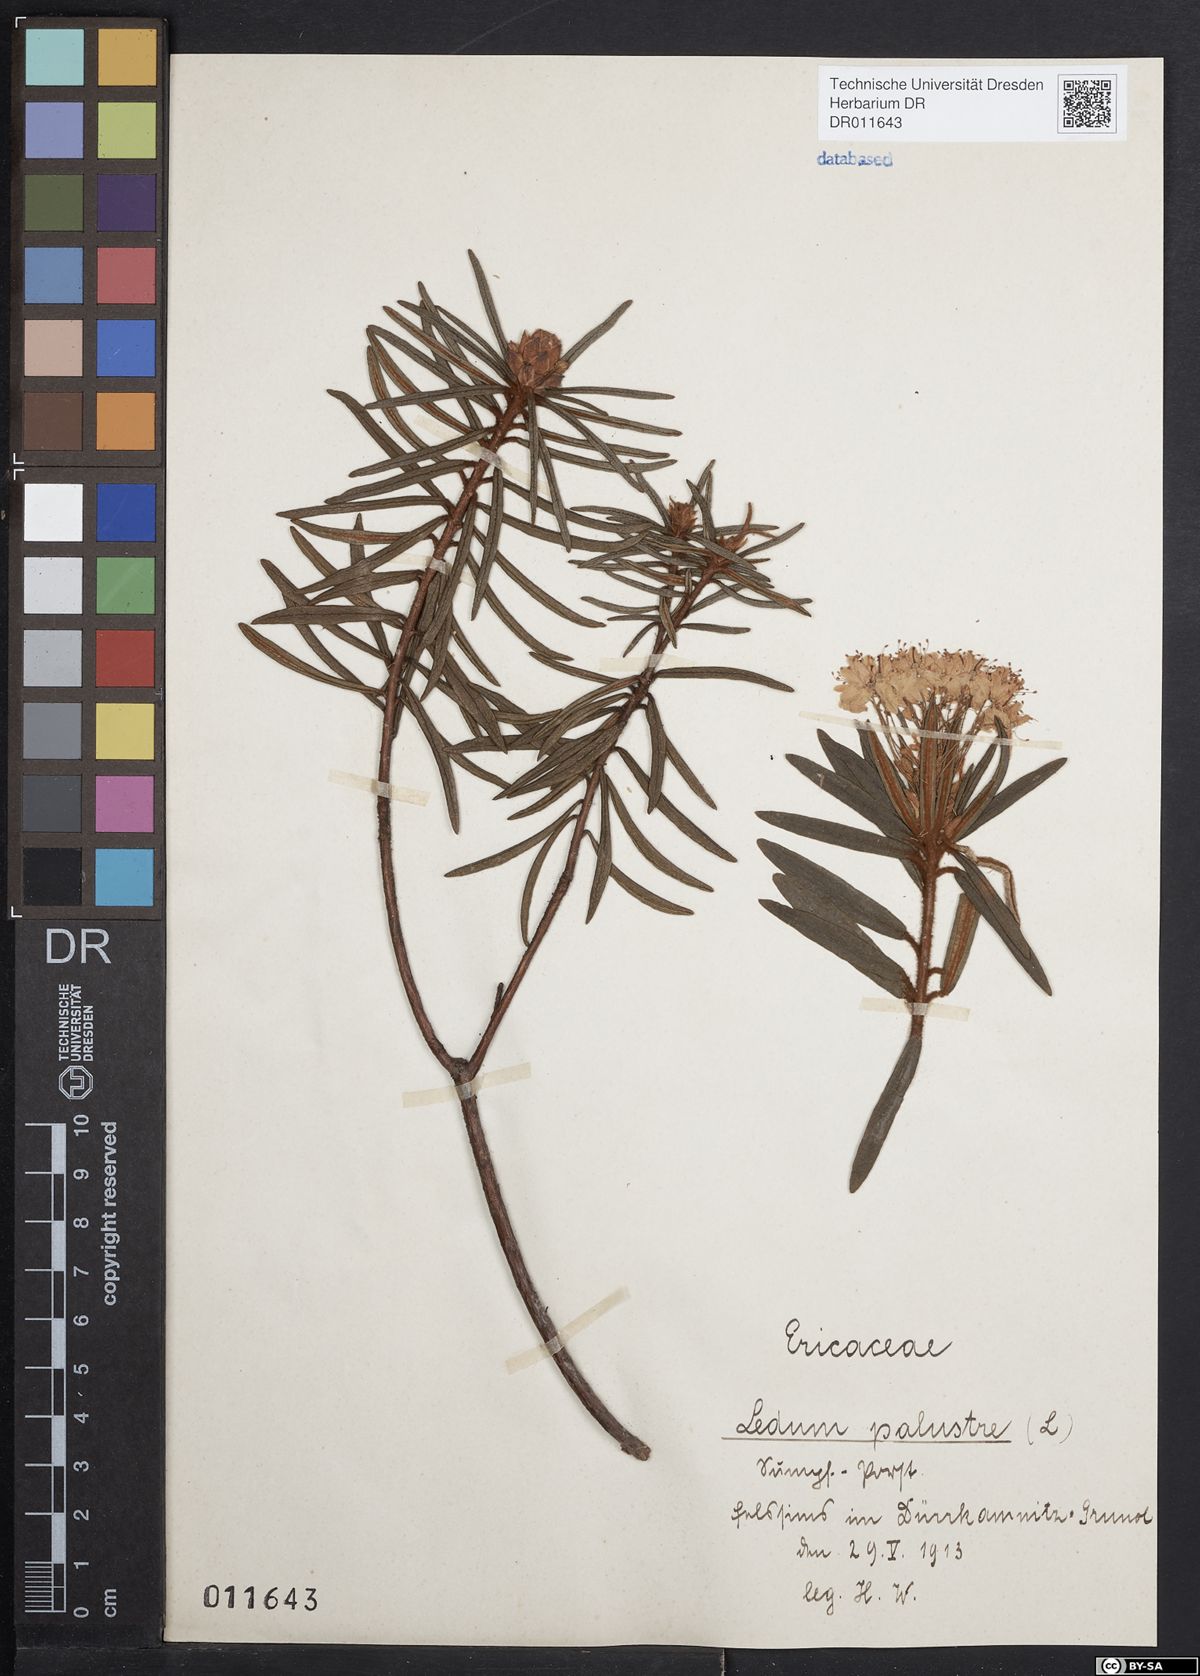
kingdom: Plantae
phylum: Tracheophyta
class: Magnoliopsida
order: Ericales
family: Ericaceae
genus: Rhododendron
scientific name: Rhododendron tomentosum
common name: Marsh labrador tea
